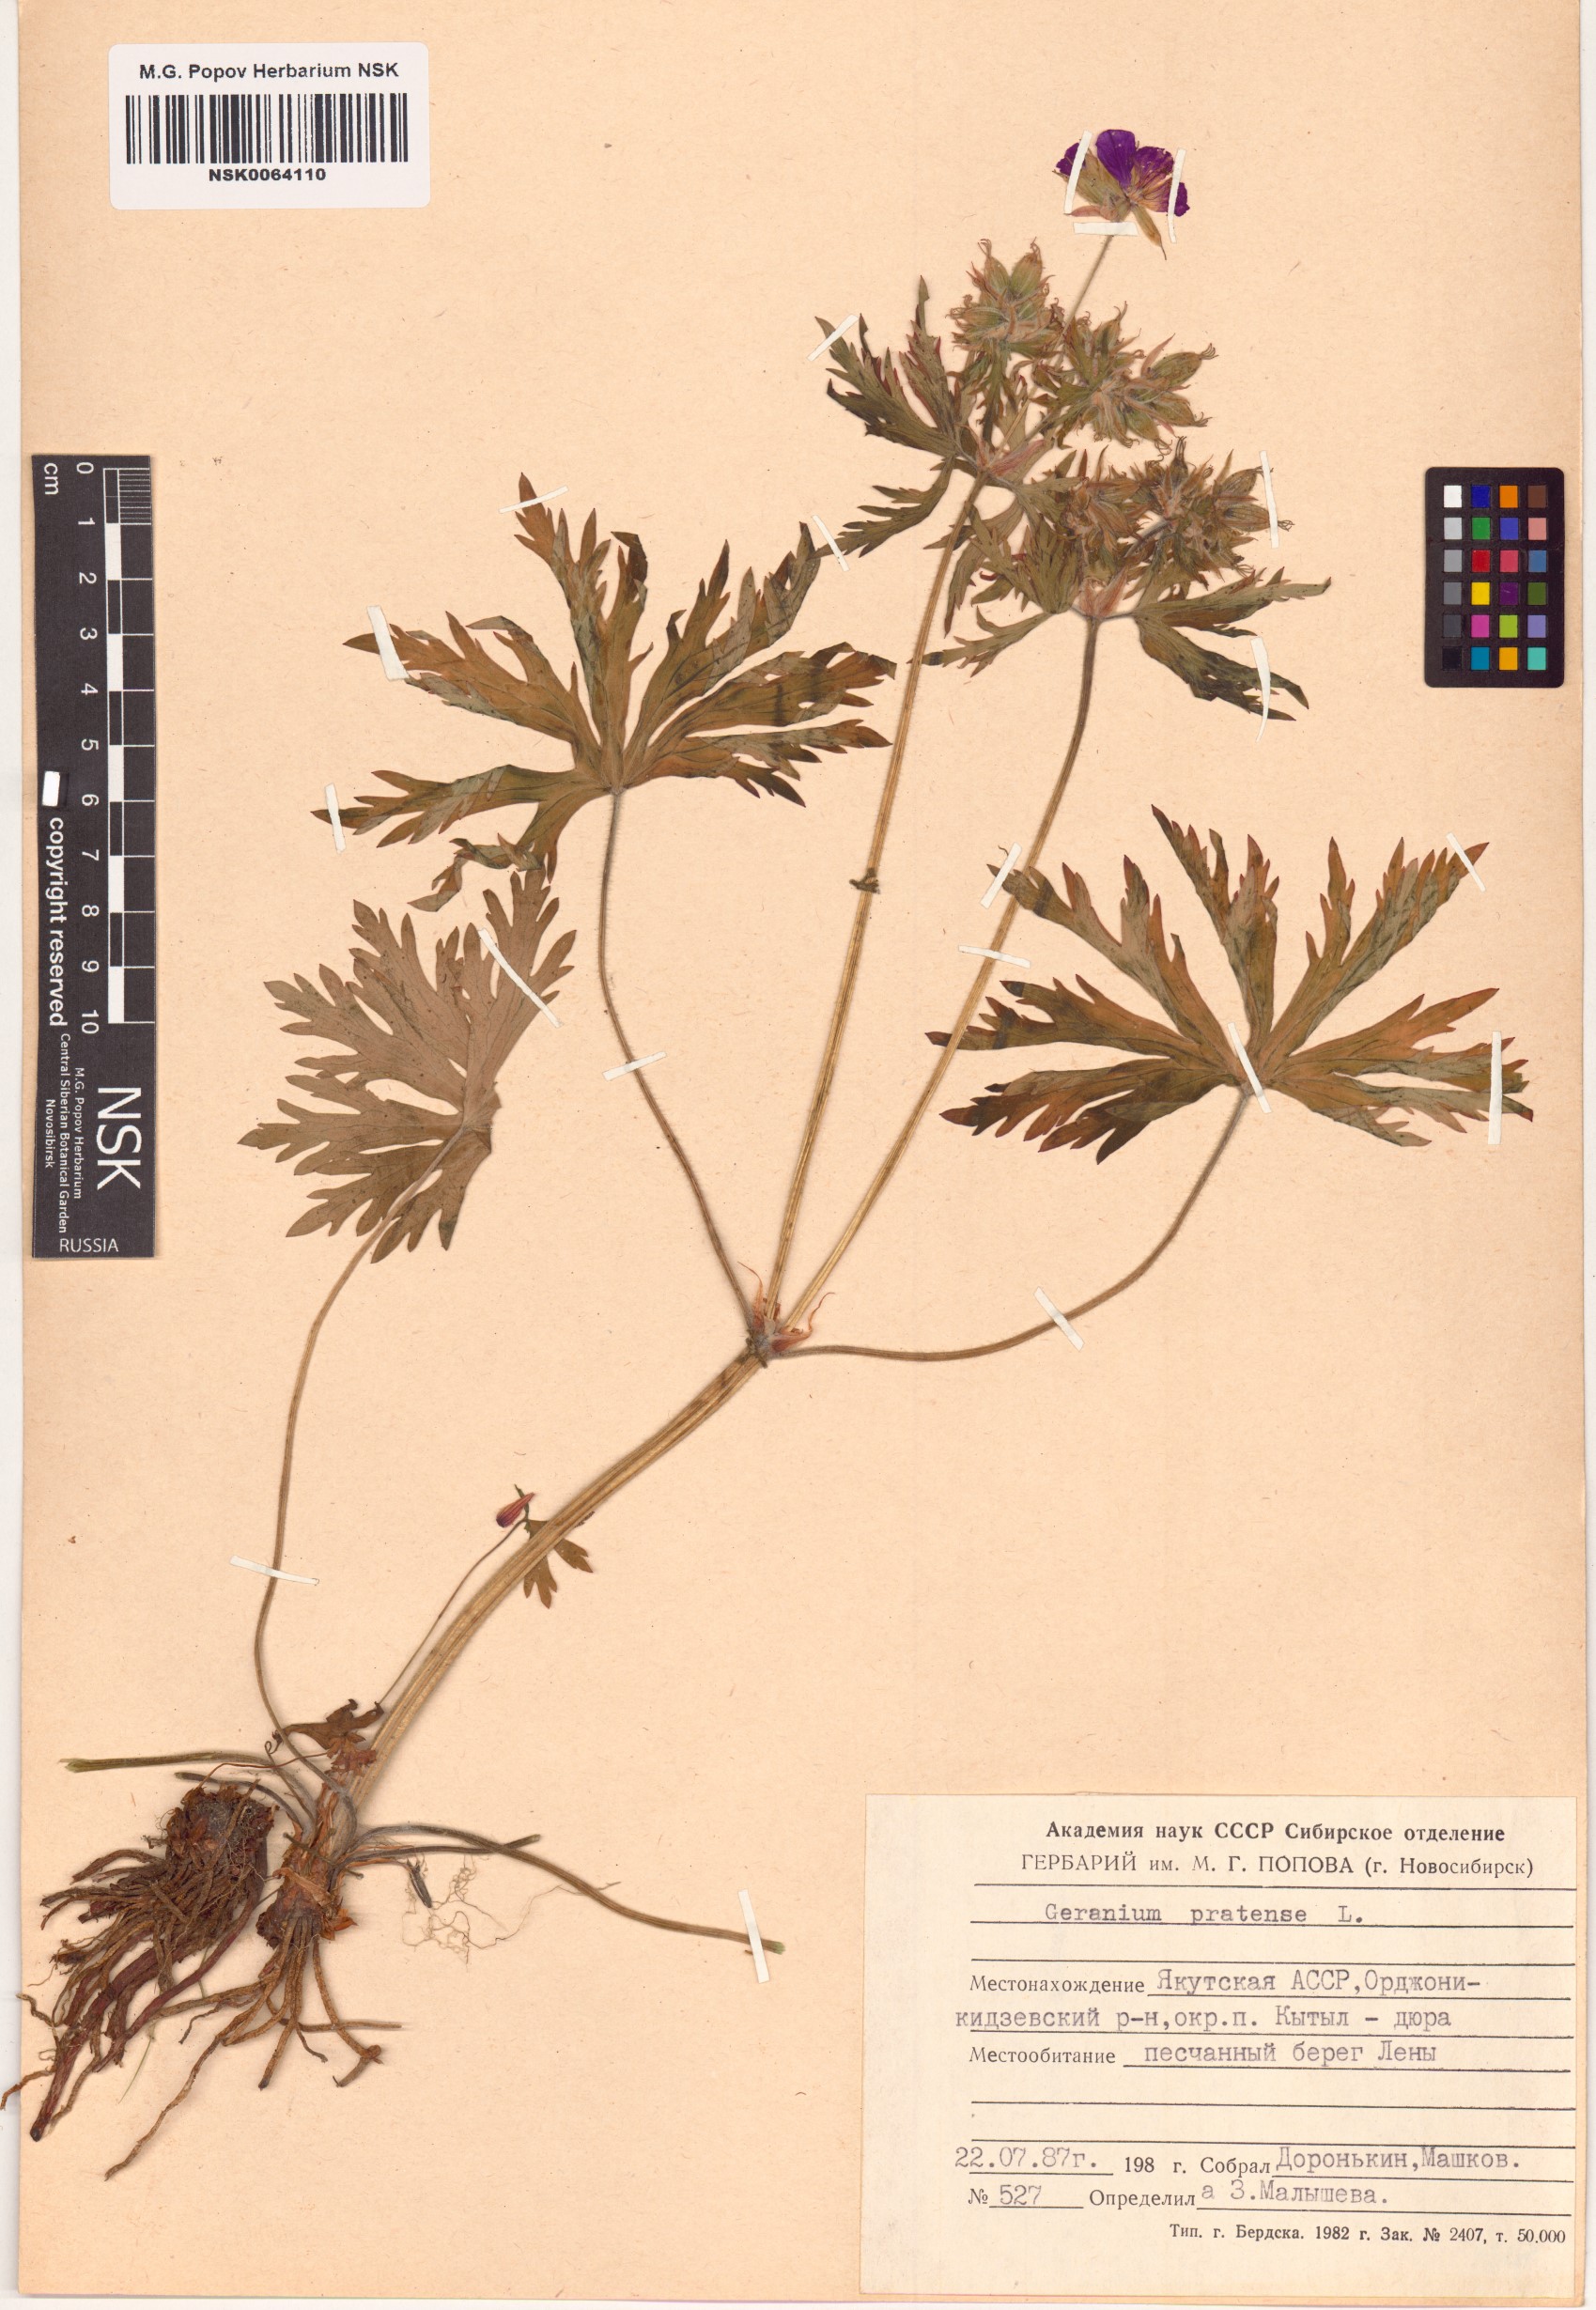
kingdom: Plantae
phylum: Tracheophyta
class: Magnoliopsida
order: Geraniales
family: Geraniaceae
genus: Geranium
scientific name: Geranium pratense
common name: Meadow crane's-bill
